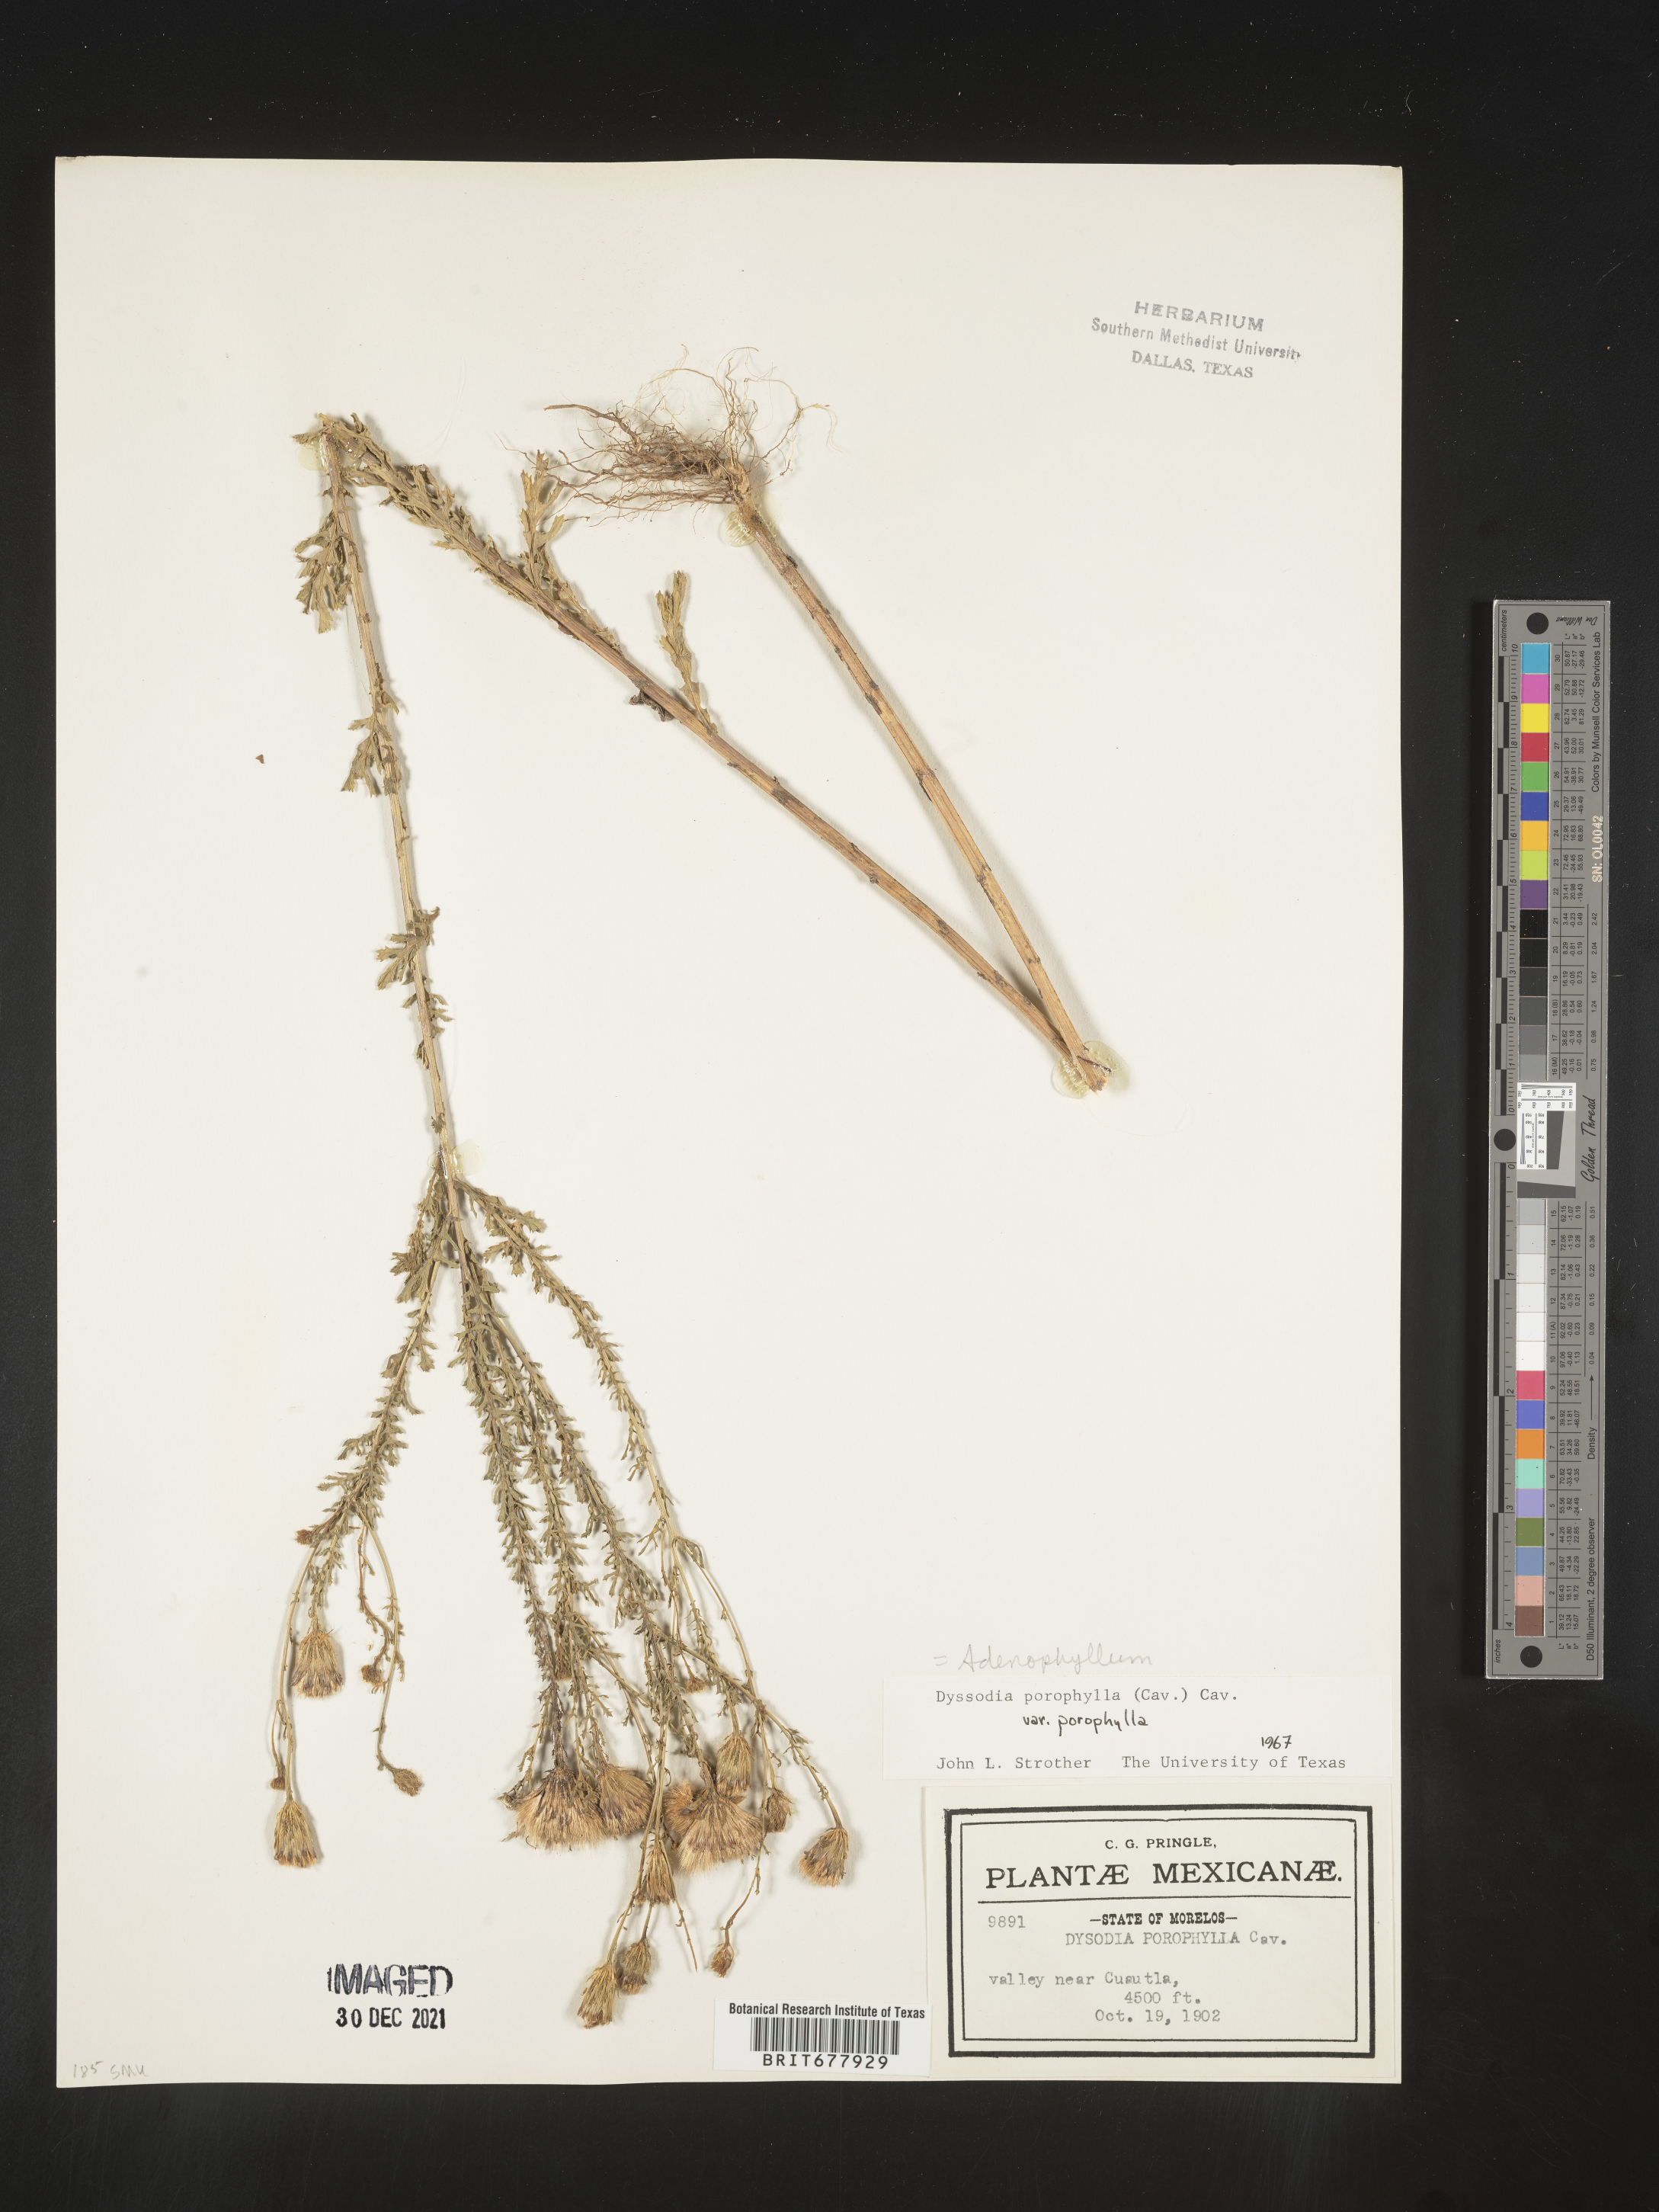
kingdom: Plantae
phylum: Tracheophyta
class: Magnoliopsida
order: Asterales
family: Asteraceae
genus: Adenophyllum
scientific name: Adenophyllum porophyllum
